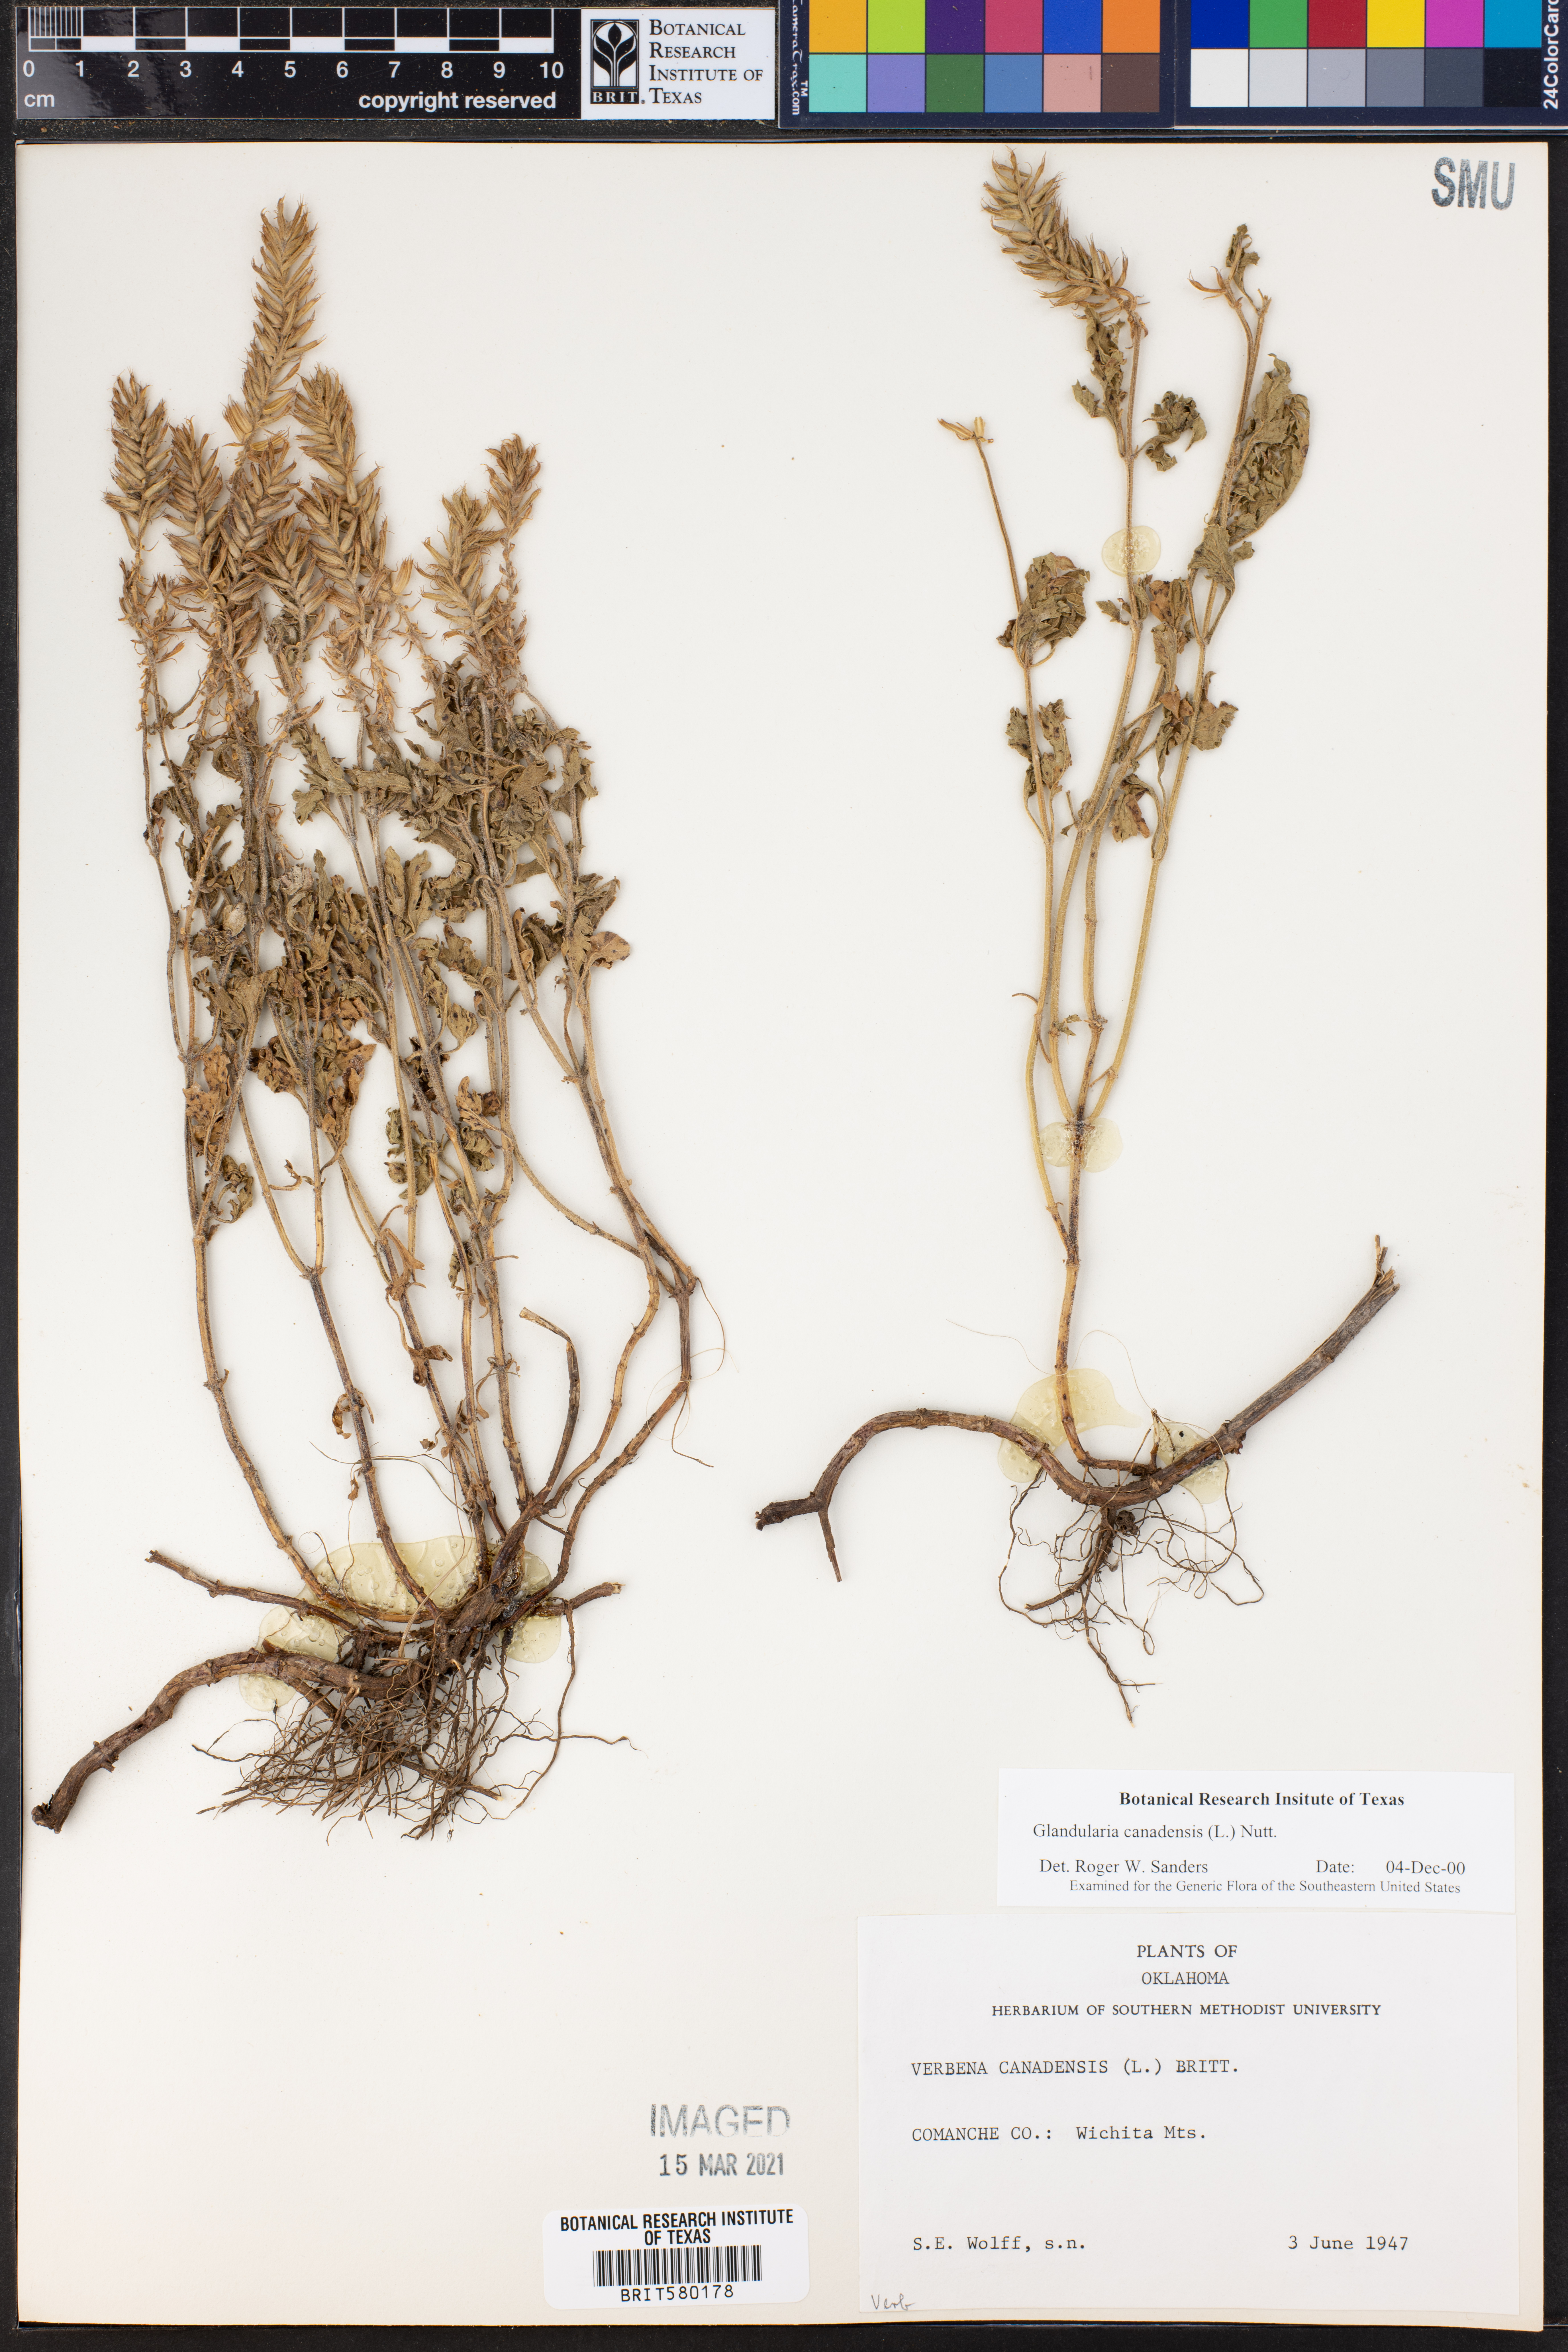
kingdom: Plantae
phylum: Tracheophyta
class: Magnoliopsida
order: Lamiales
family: Verbenaceae
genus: Verbena
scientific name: Verbena canadensis
